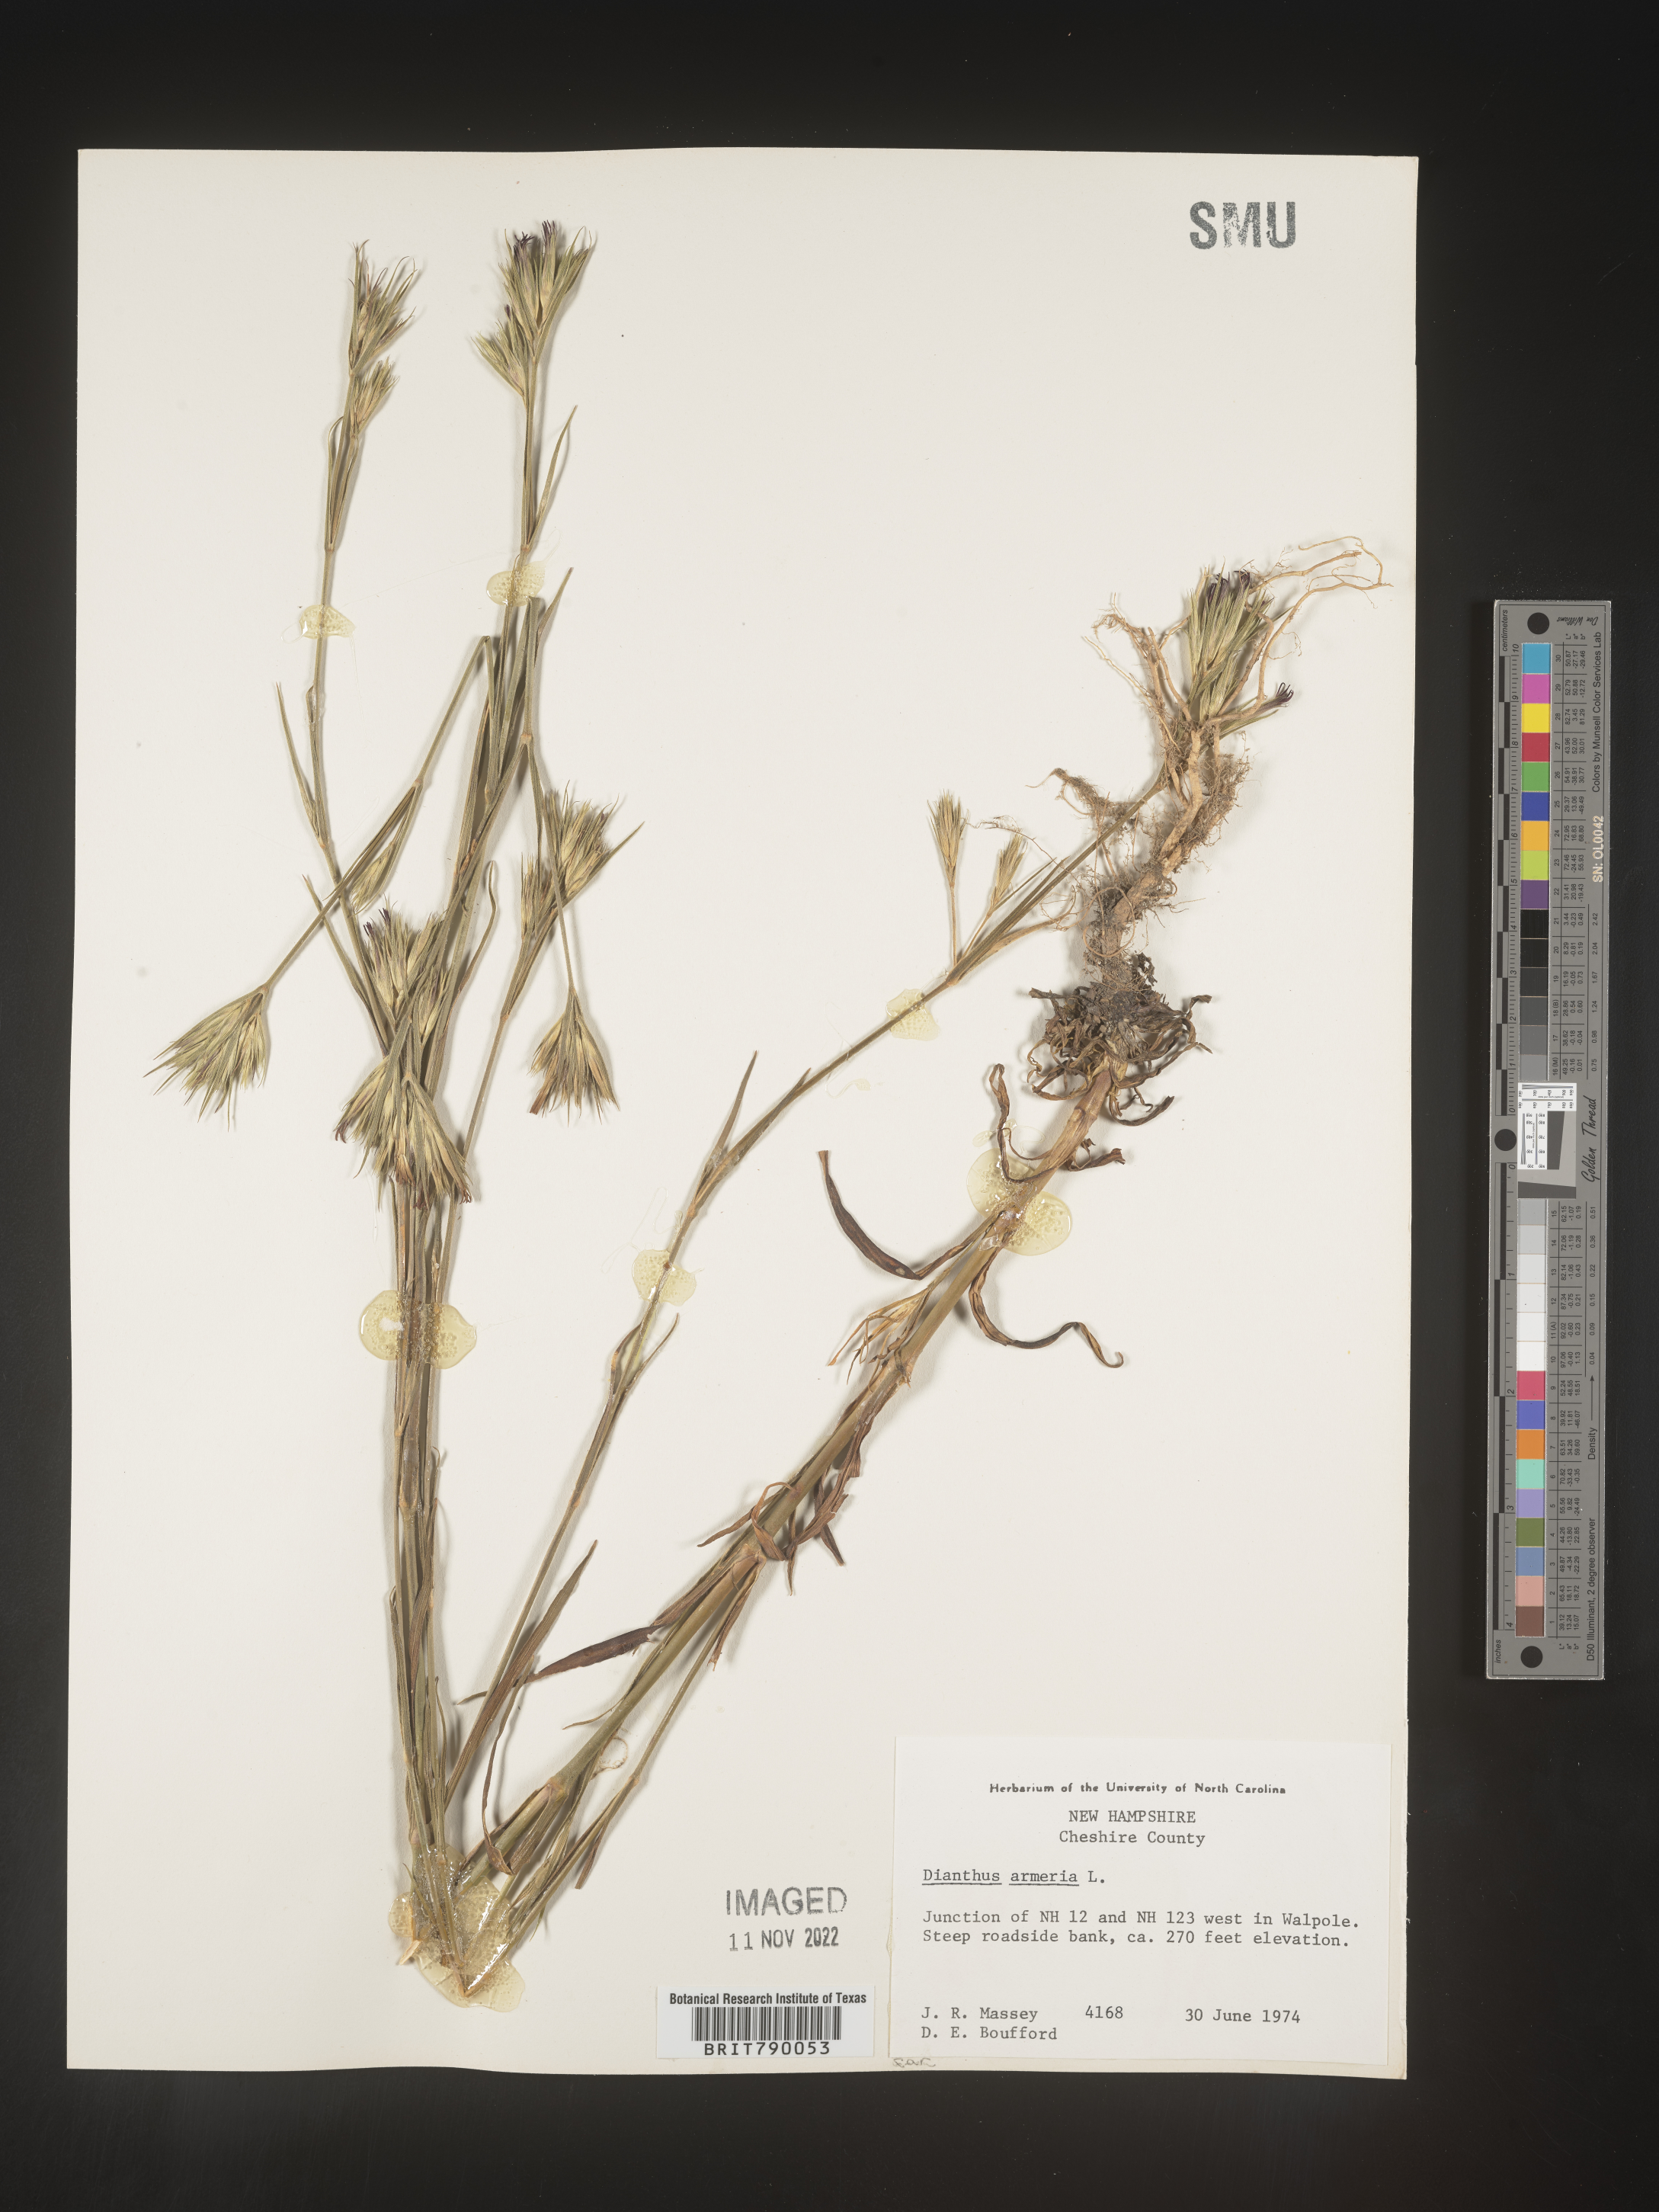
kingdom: Plantae
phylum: Tracheophyta
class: Magnoliopsida
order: Caryophyllales
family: Caryophyllaceae
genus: Dianthus
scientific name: Dianthus armeria
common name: Deptford pink
